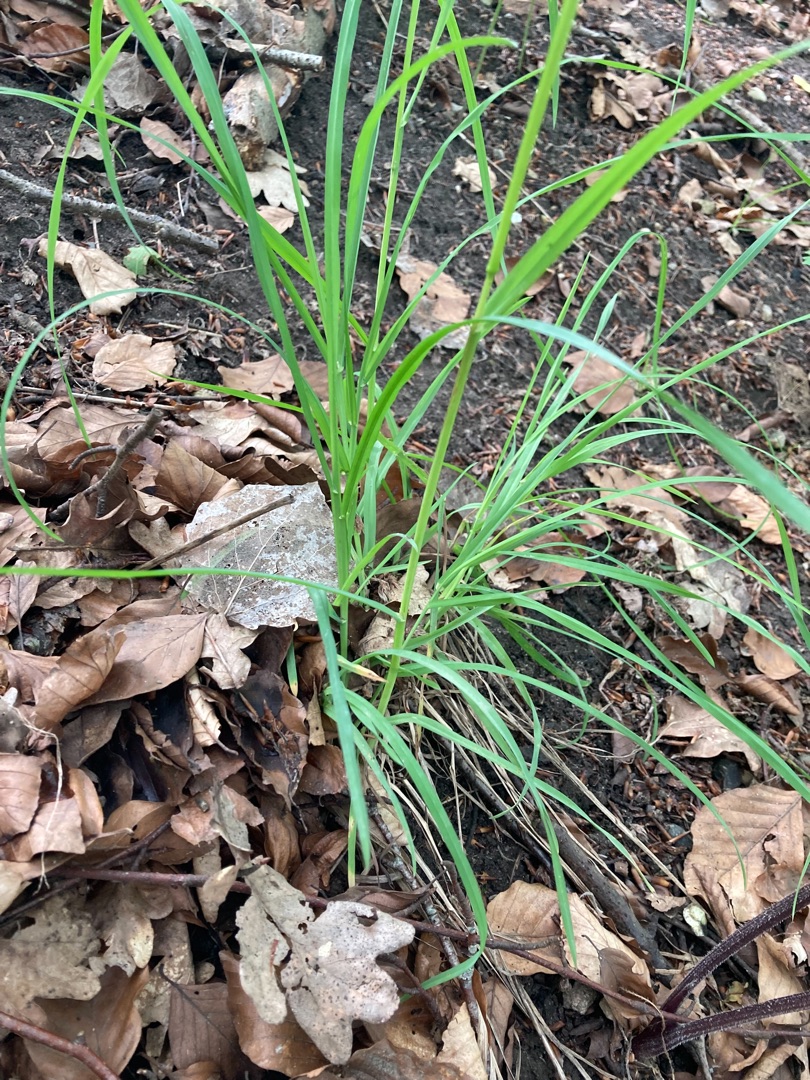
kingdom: Plantae
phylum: Tracheophyta
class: Liliopsida
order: Poales
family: Poaceae
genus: Dactylis
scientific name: Dactylis glomerata
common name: Skov-hundegræs
